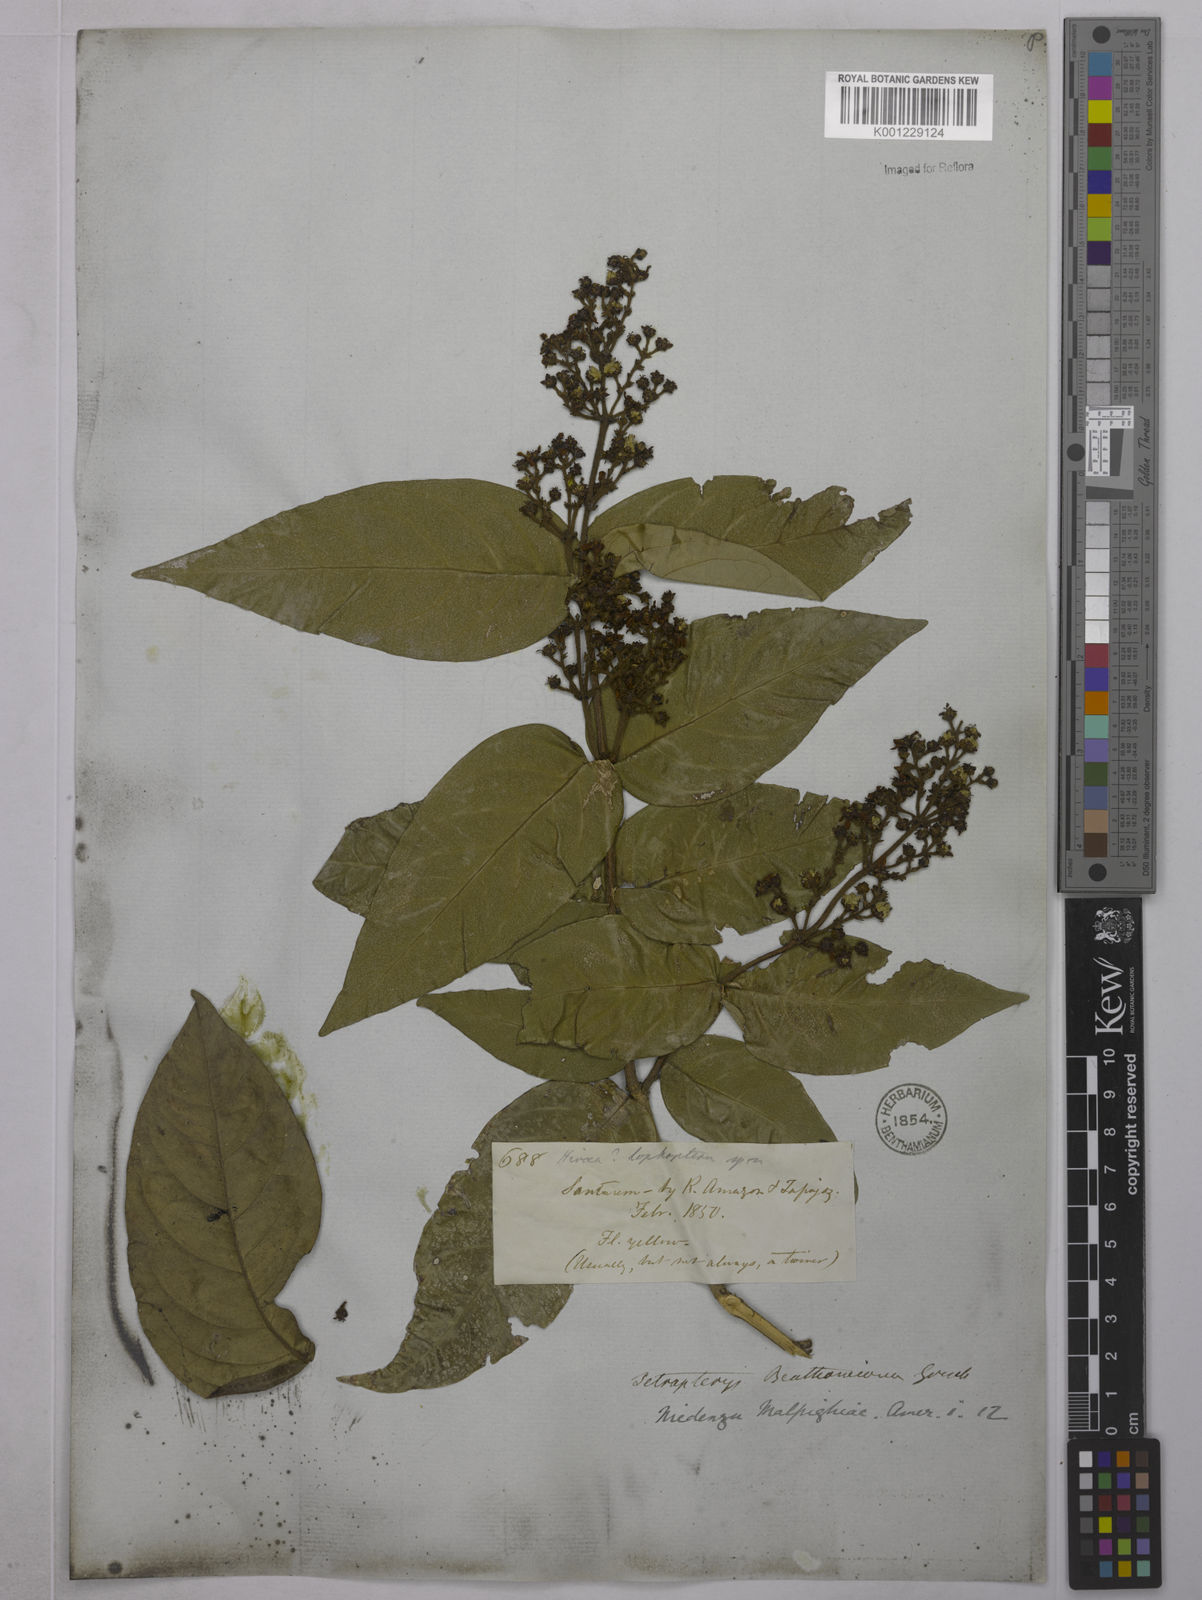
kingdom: Plantae
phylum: Tracheophyta
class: Magnoliopsida
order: Malpighiales
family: Malpighiaceae
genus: Niedenzuella
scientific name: Niedenzuella stannea
